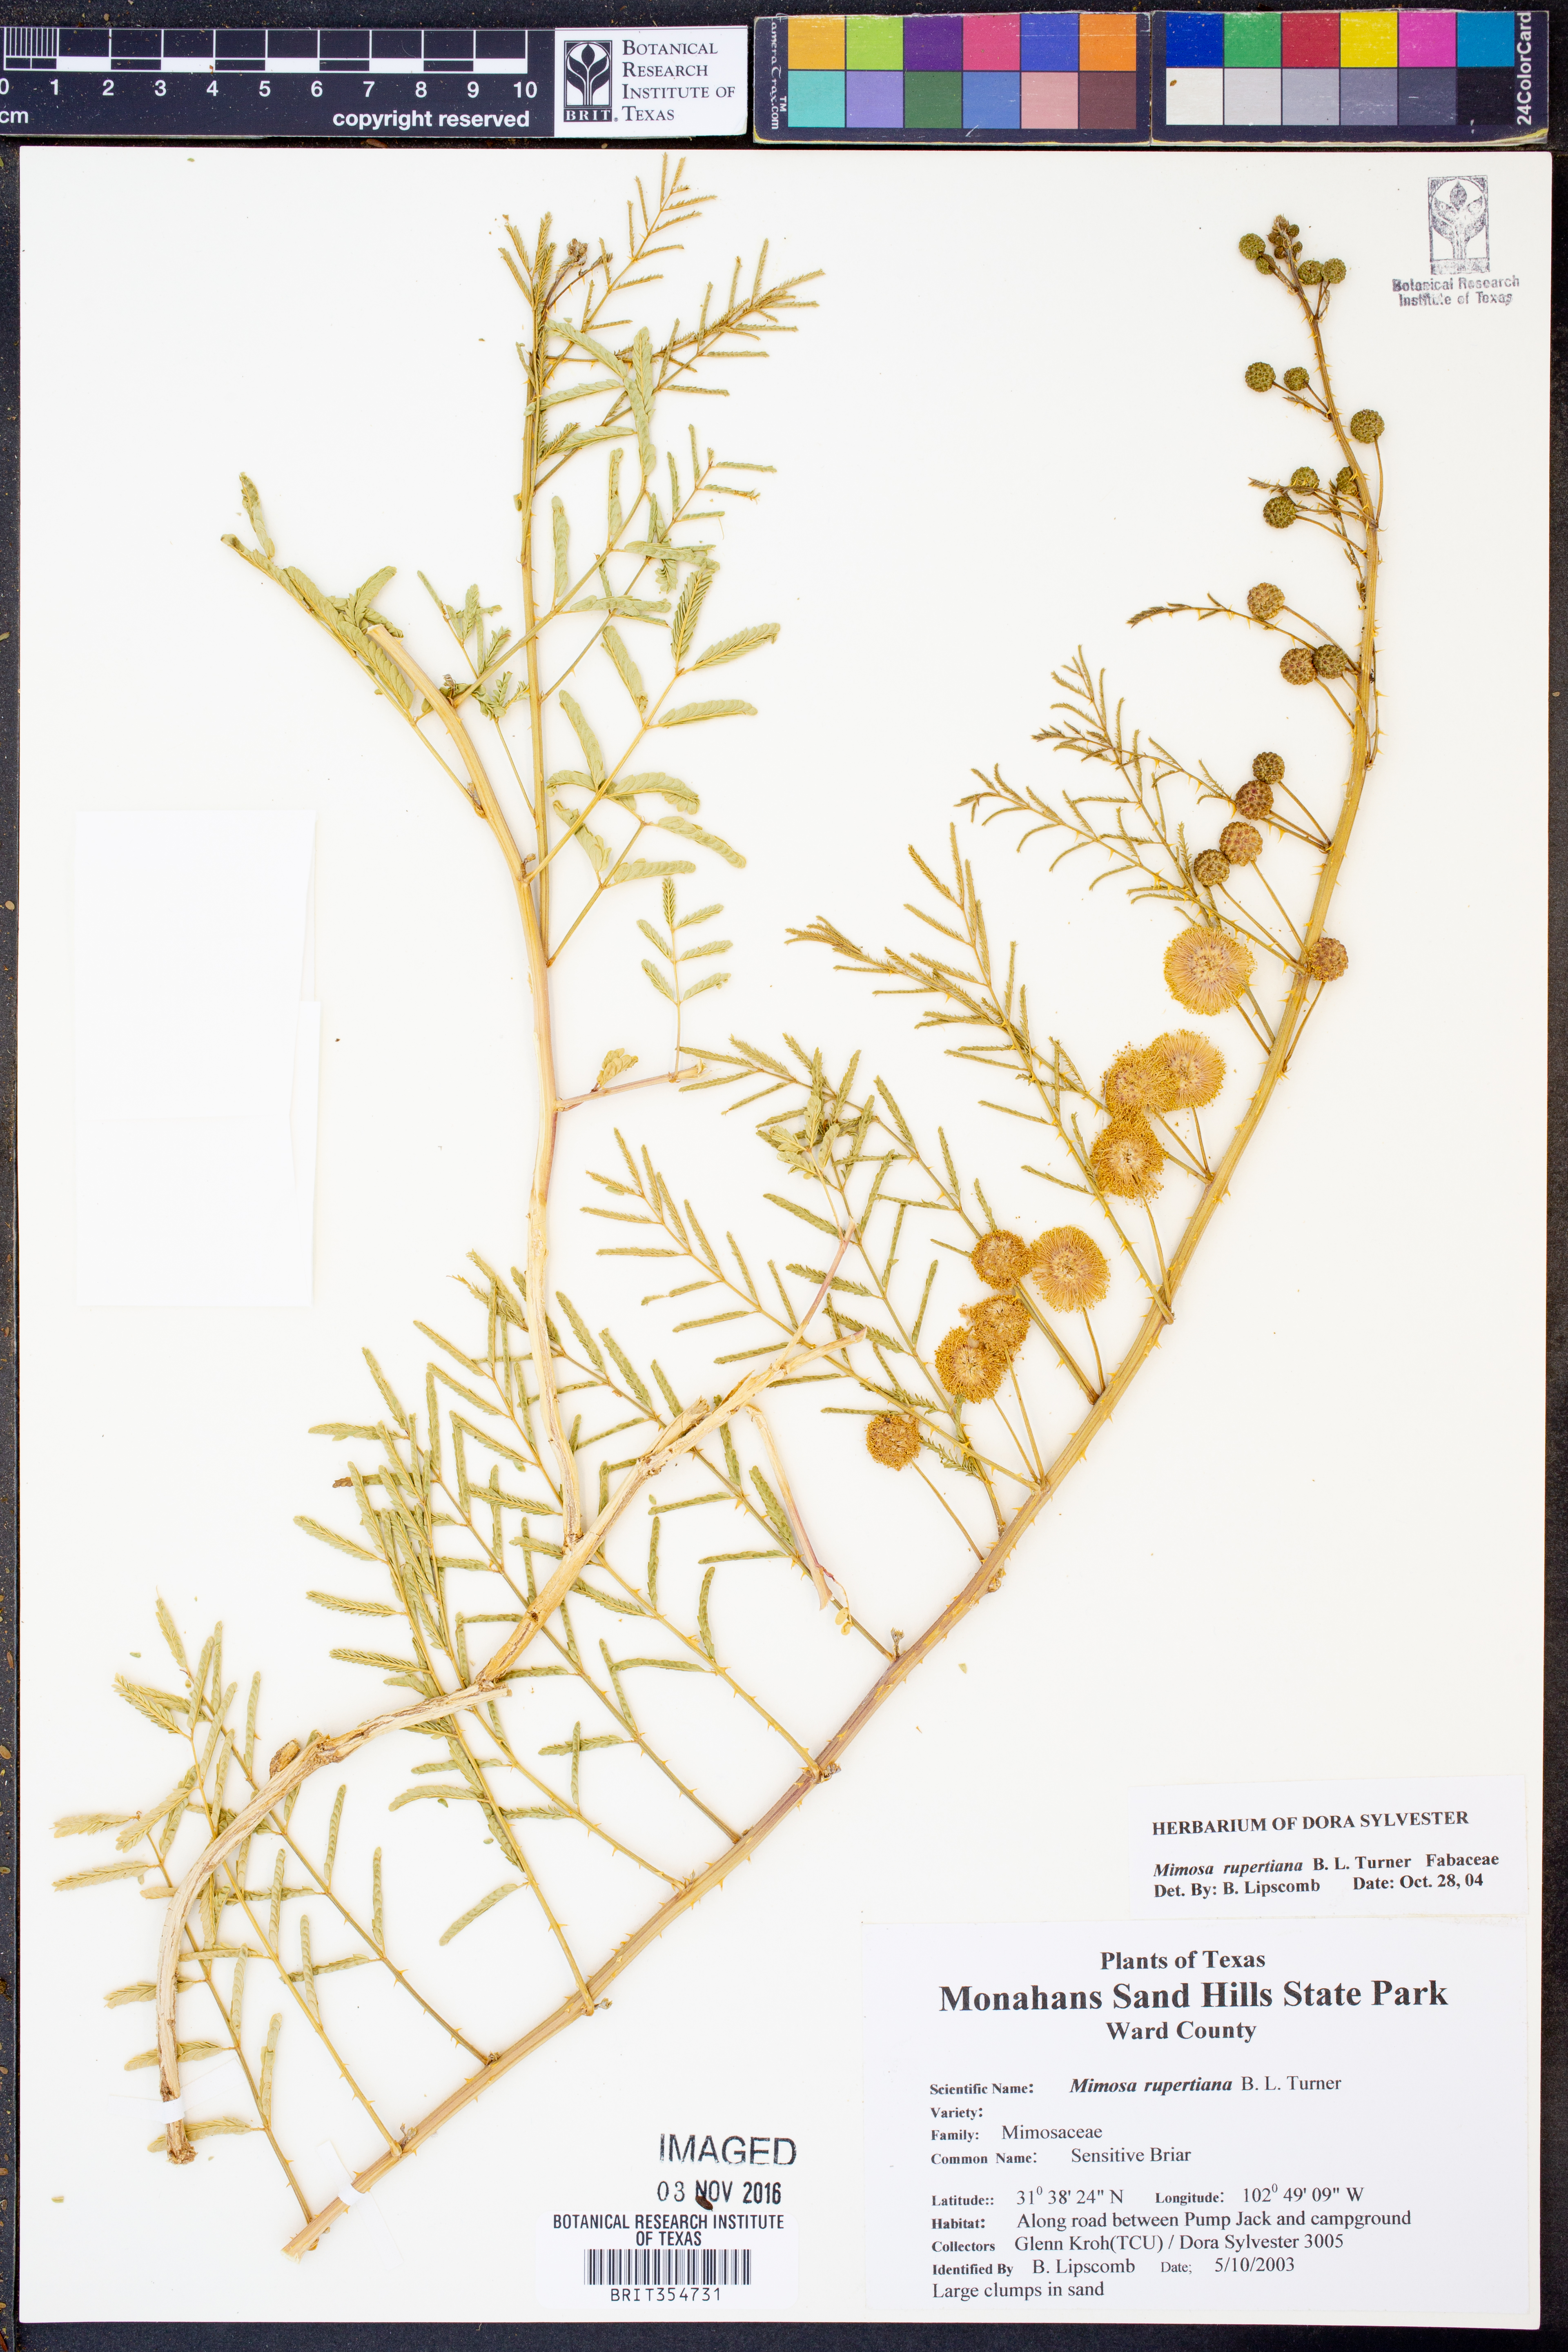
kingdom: Plantae
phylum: Tracheophyta
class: Magnoliopsida
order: Fabales
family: Fabaceae
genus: Mimosa
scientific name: Mimosa quadrivalvis
